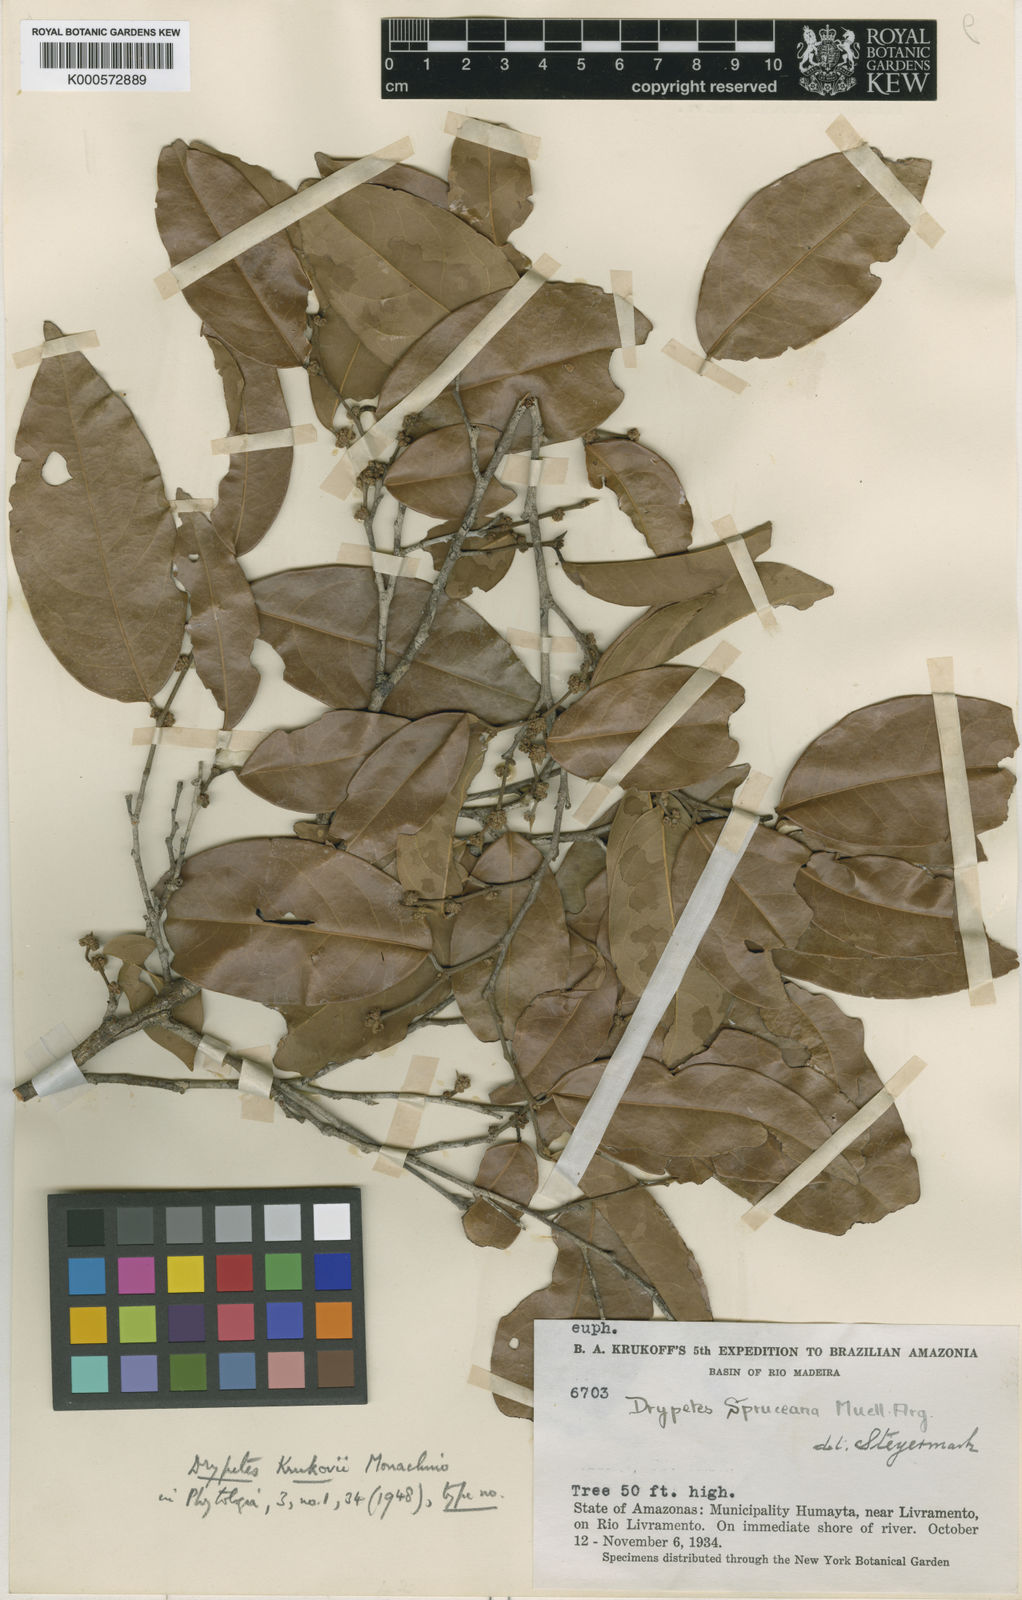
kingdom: Plantae
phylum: Tracheophyta
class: Magnoliopsida
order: Malpighiales
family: Phyllanthaceae
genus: Discocarpus
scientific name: Discocarpus
